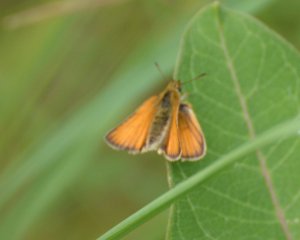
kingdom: Animalia
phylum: Arthropoda
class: Insecta
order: Lepidoptera
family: Hesperiidae
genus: Thymelicus
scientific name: Thymelicus lineola
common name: European Skipper
